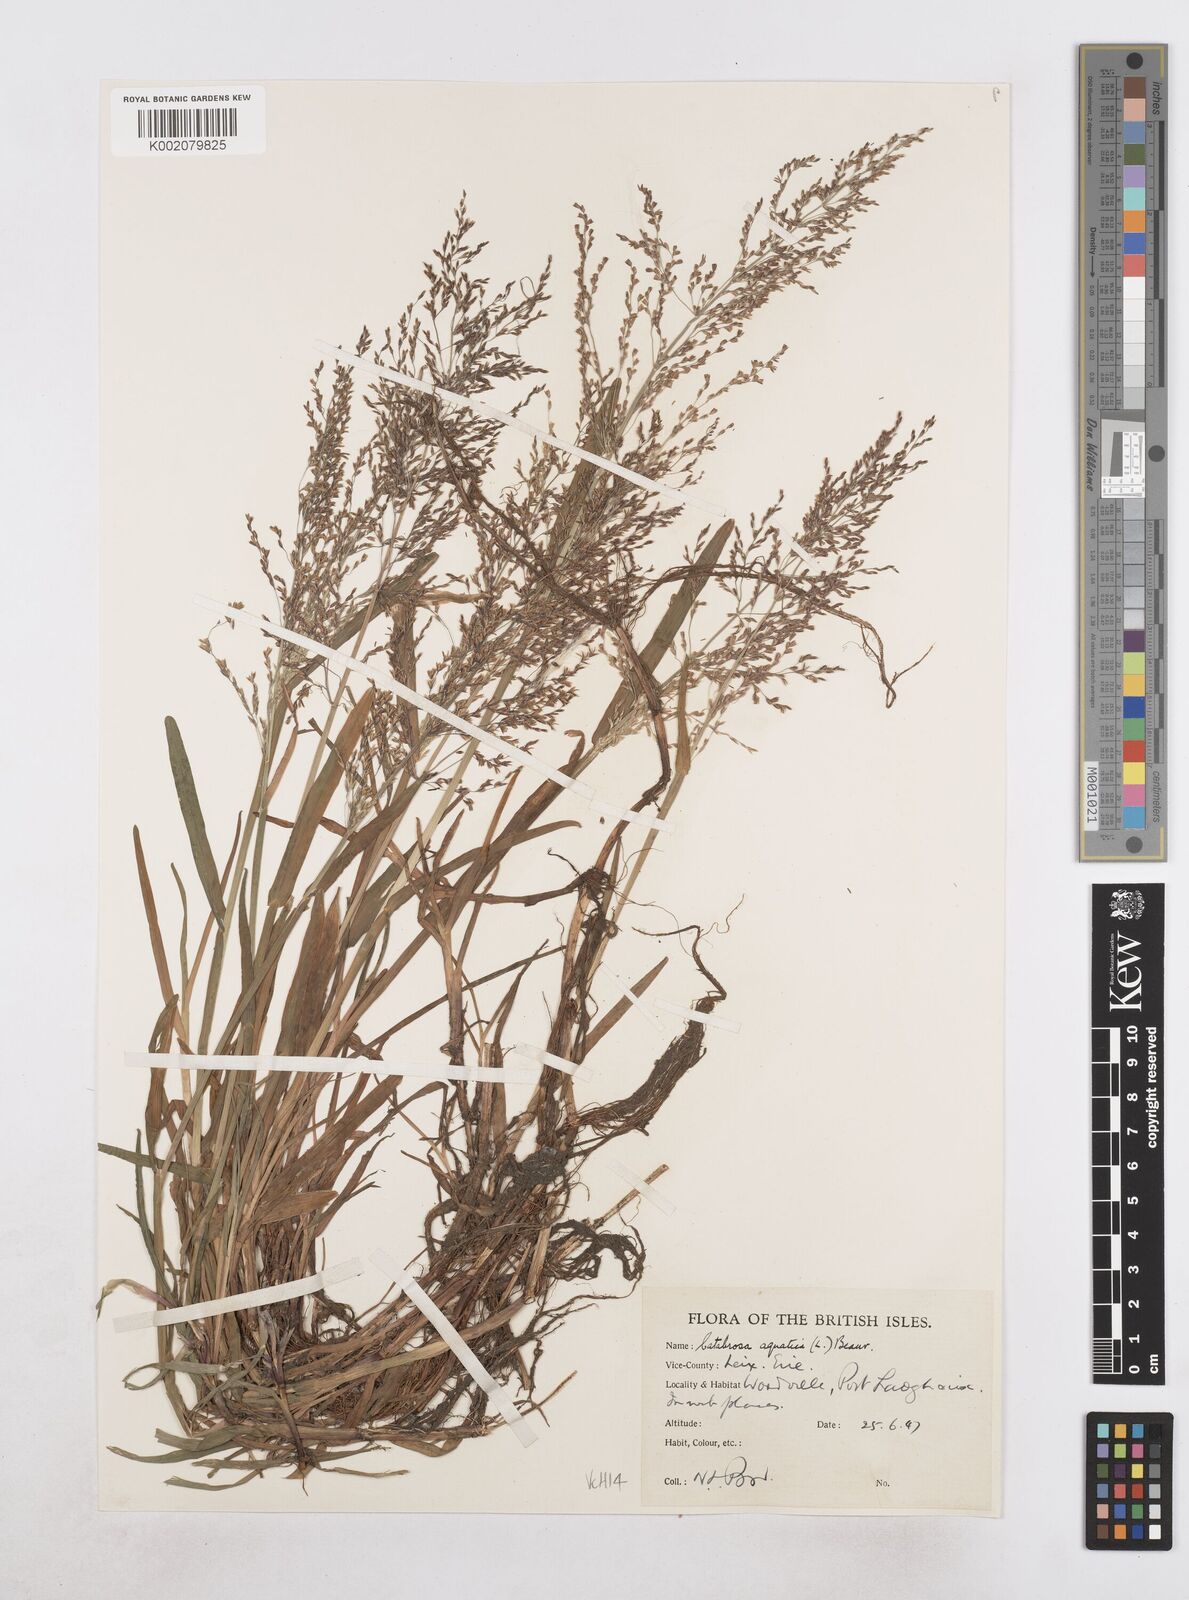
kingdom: Plantae
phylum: Tracheophyta
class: Liliopsida
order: Poales
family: Poaceae
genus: Catabrosa
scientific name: Catabrosa aquatica
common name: Whorl-grass
